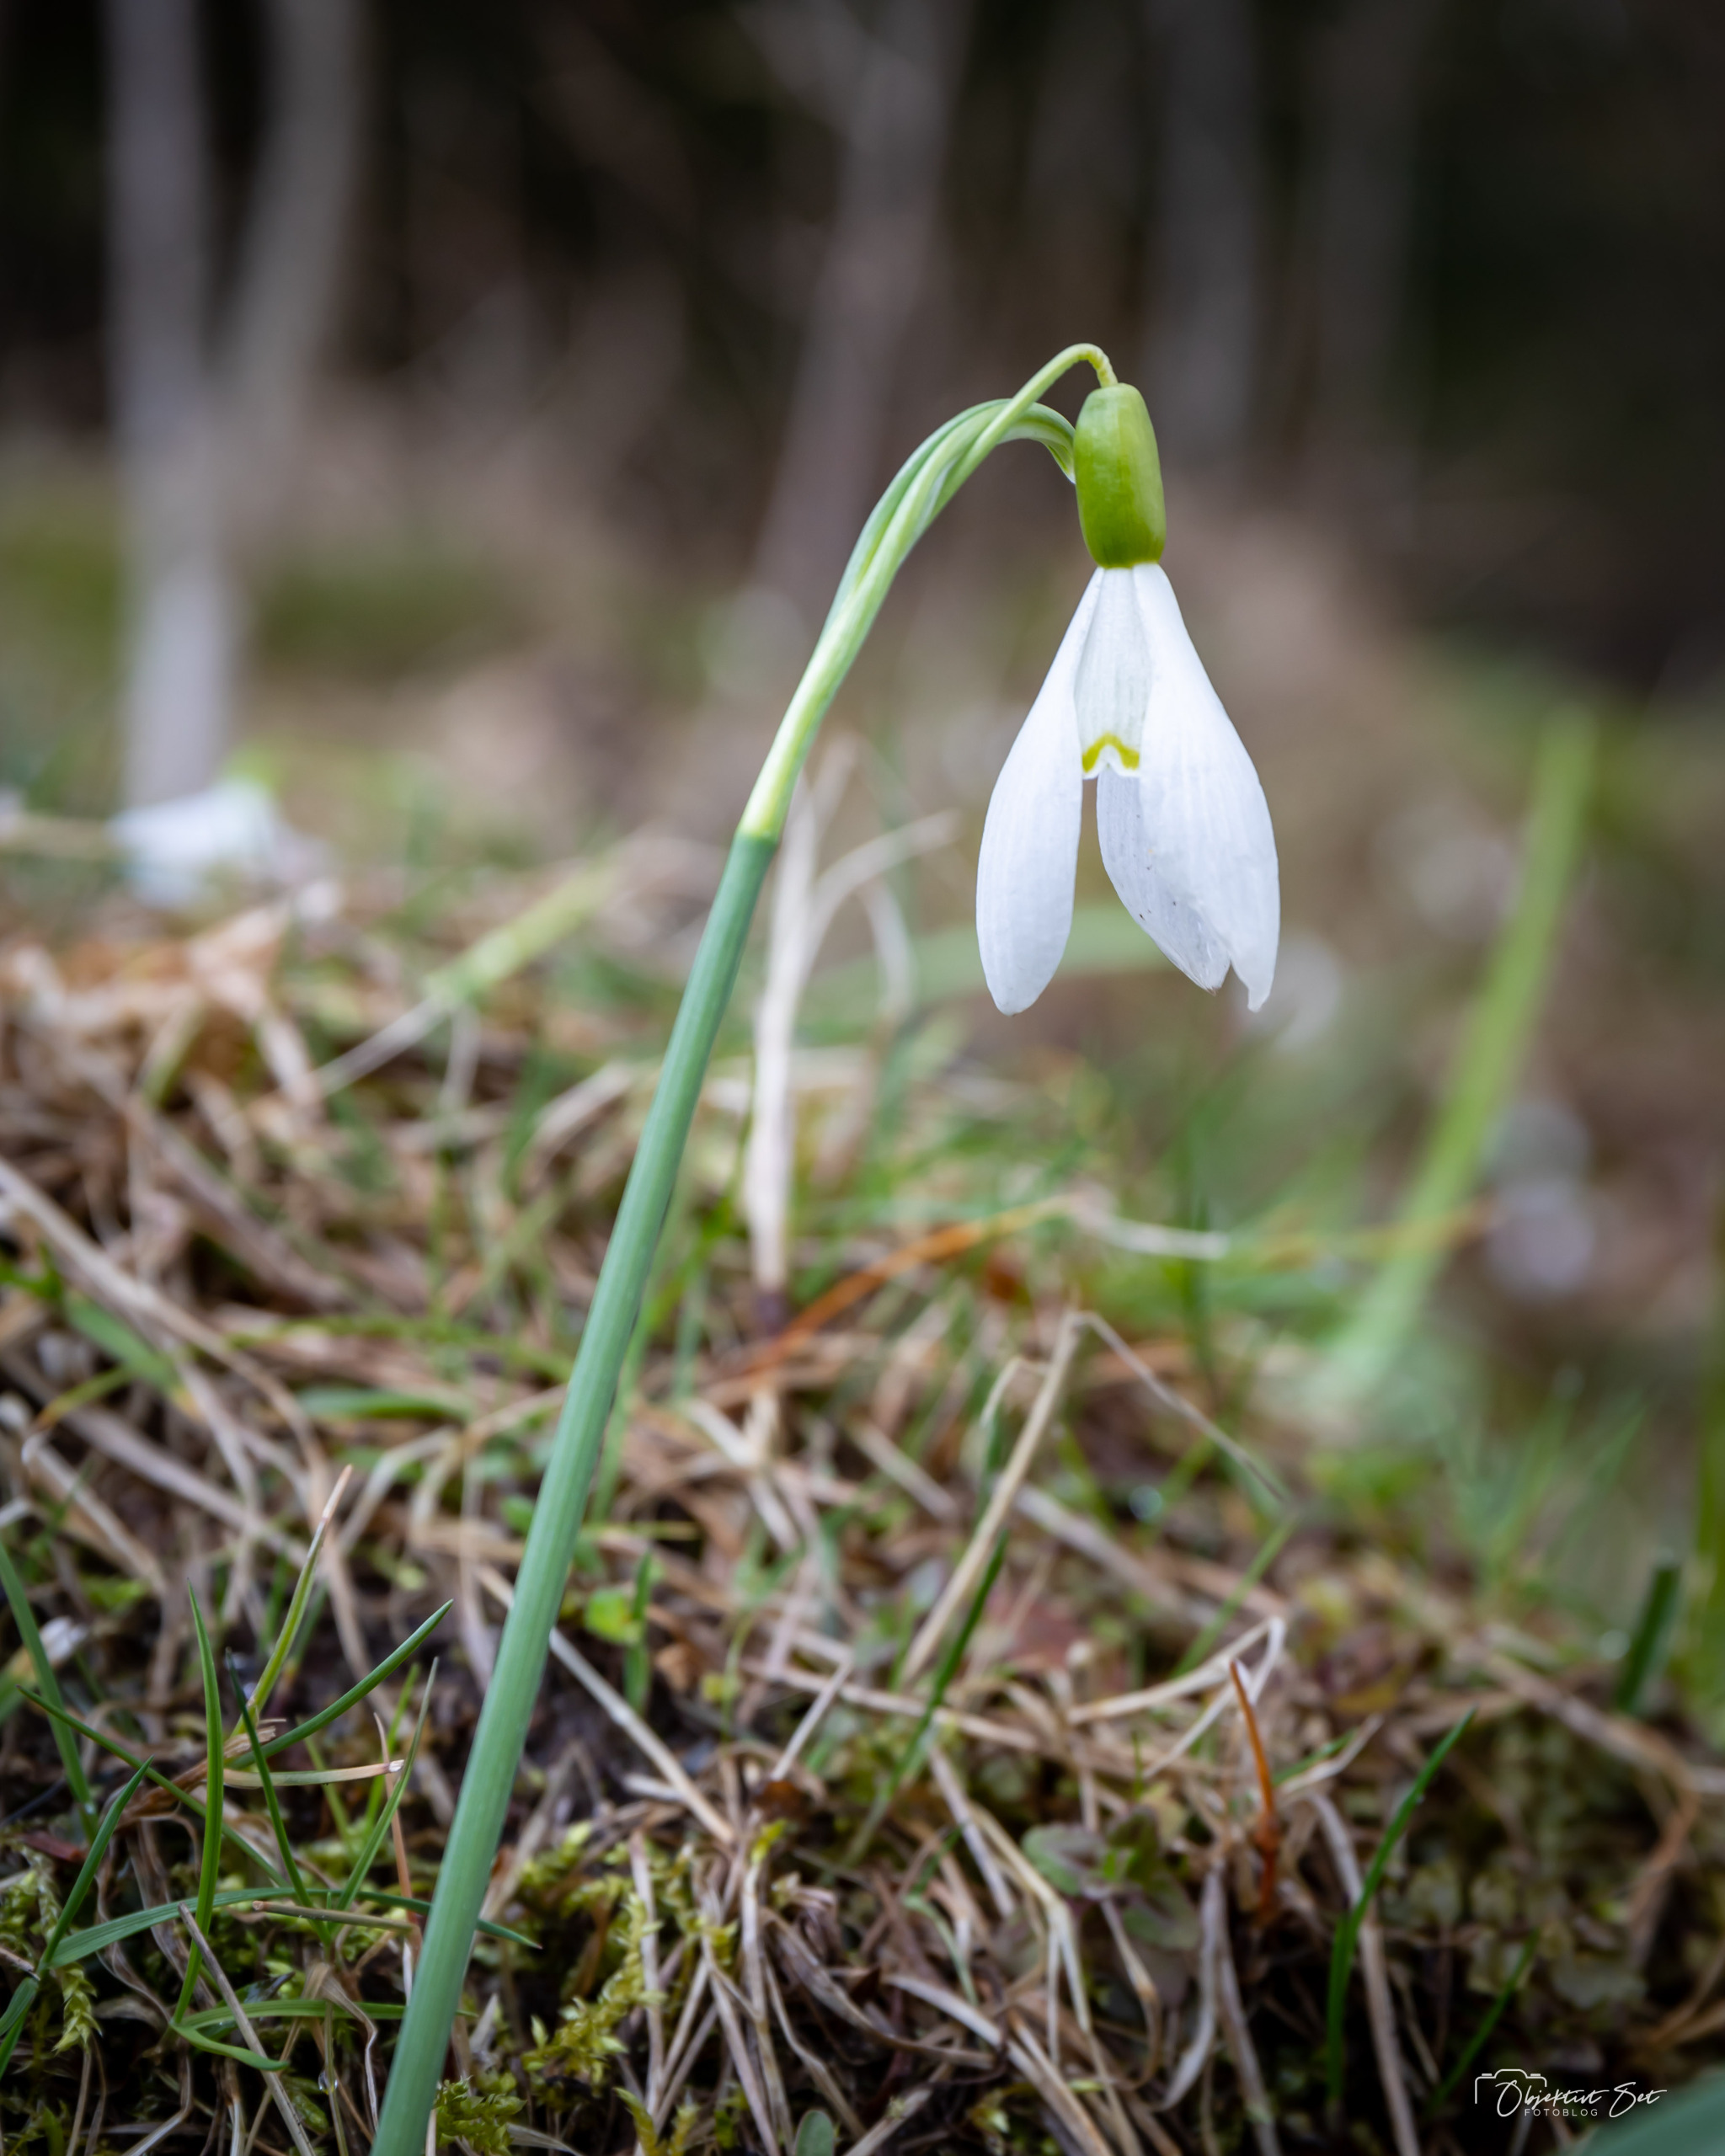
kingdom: Plantae
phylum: Tracheophyta
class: Liliopsida
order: Asparagales
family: Amaryllidaceae
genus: Galanthus
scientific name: Galanthus nivalis
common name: Vintergæk
